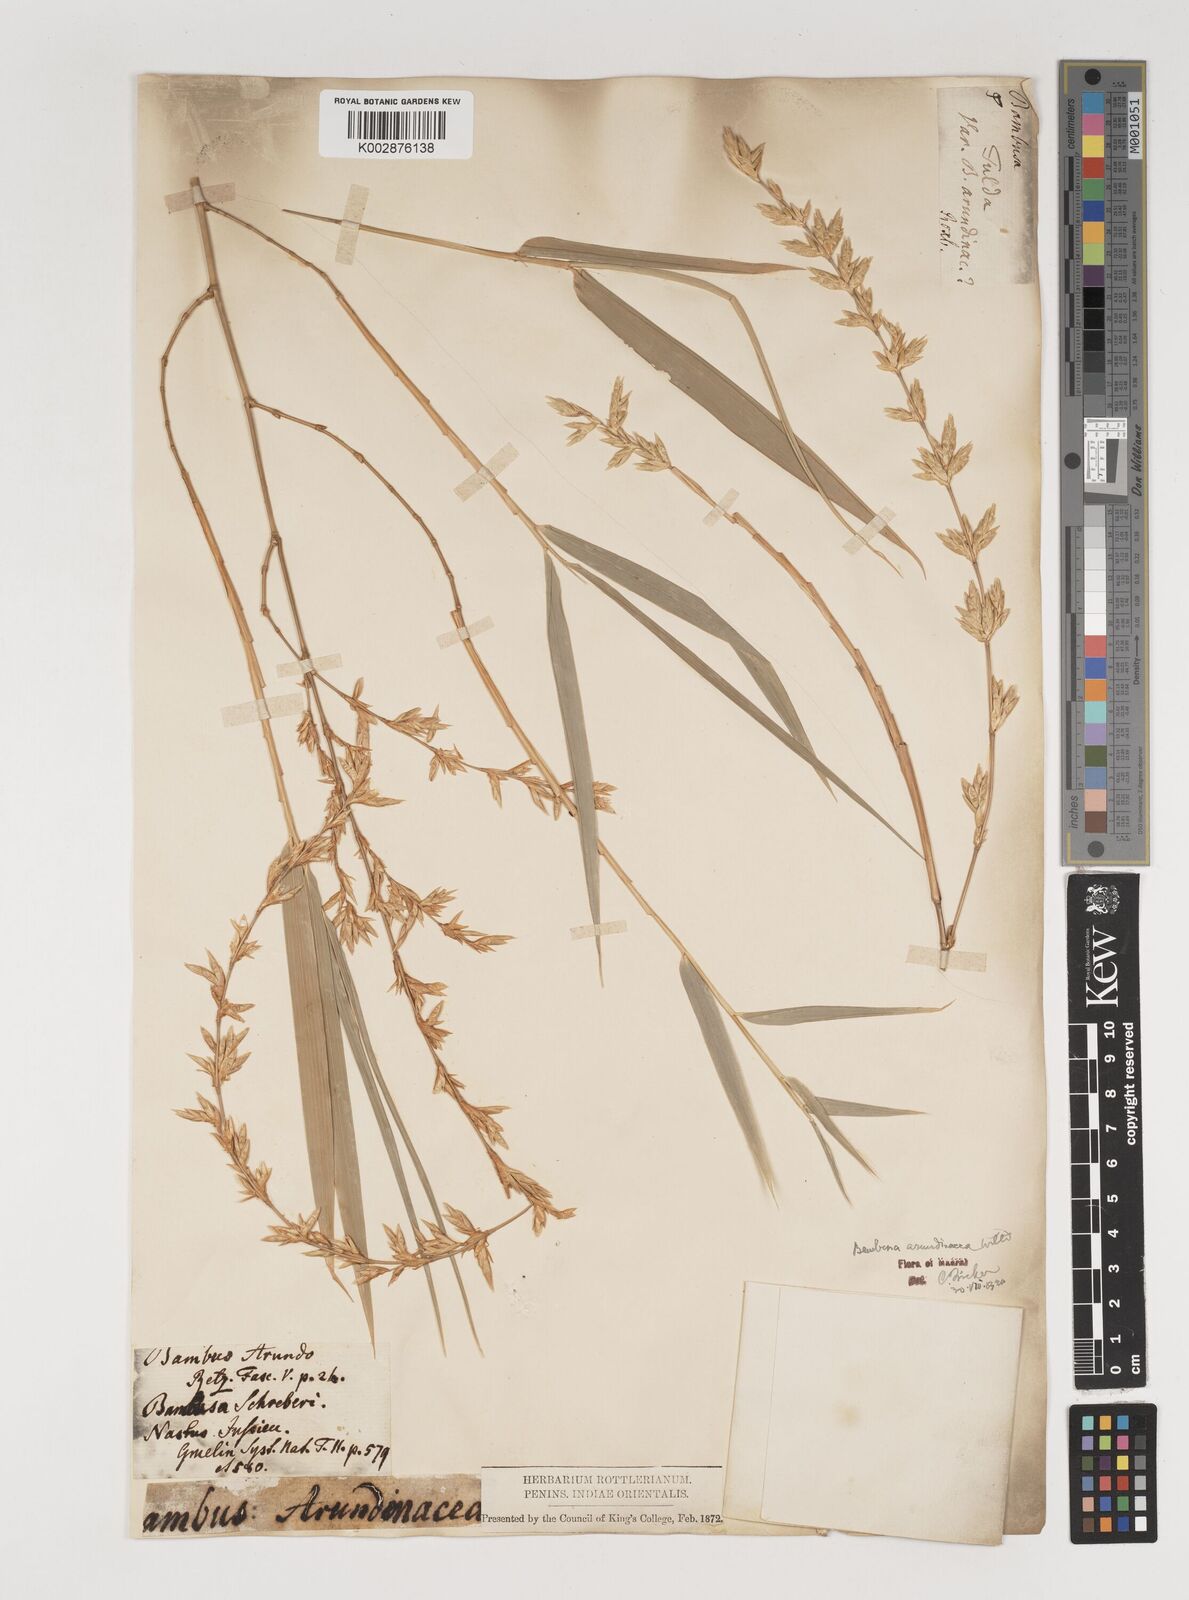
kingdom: Plantae
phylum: Tracheophyta
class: Liliopsida
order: Poales
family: Poaceae
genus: Bambusa
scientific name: Bambusa bambos
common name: Indian thorny bamboo
